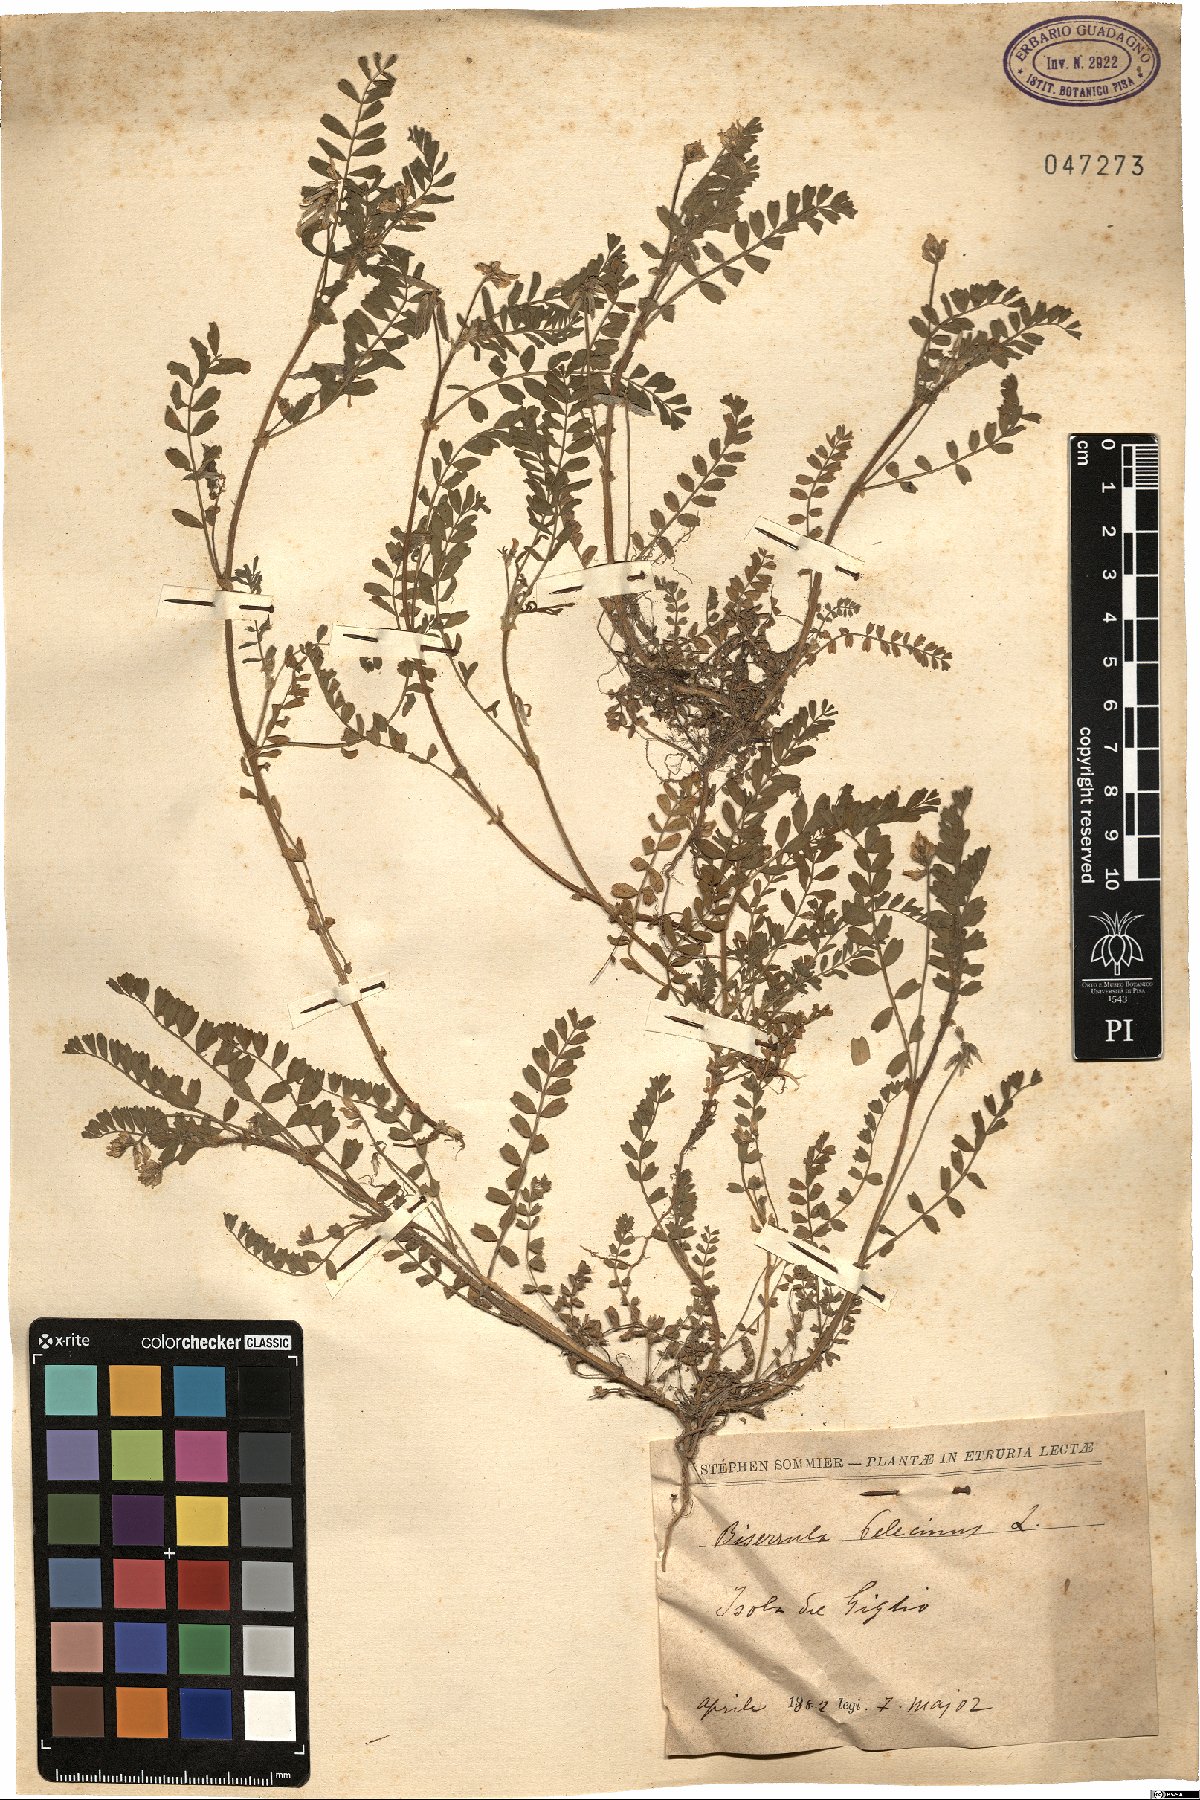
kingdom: Plantae
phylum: Tracheophyta
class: Magnoliopsida
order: Fabales
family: Fabaceae
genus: Biserrula
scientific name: Biserrula pelecinus
